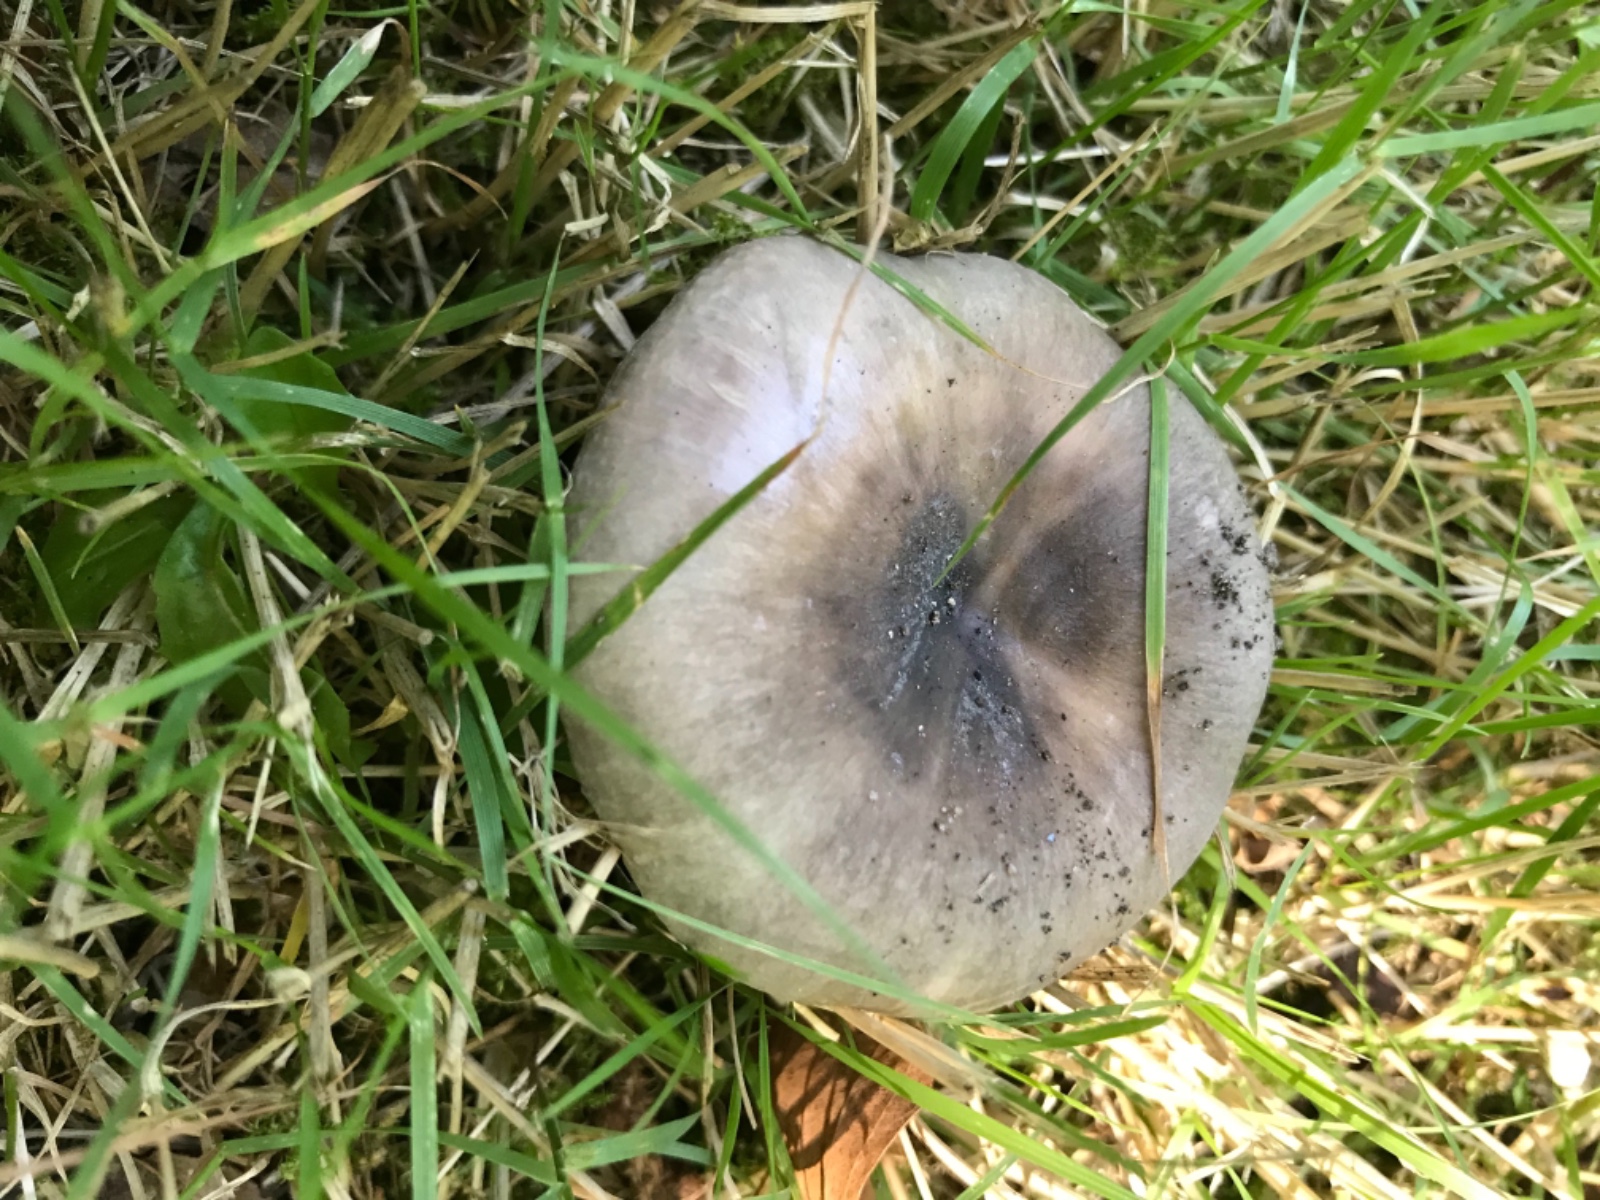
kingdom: Fungi
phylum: Basidiomycota
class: Agaricomycetes
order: Russulales
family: Russulaceae
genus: Russula
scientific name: Russula
